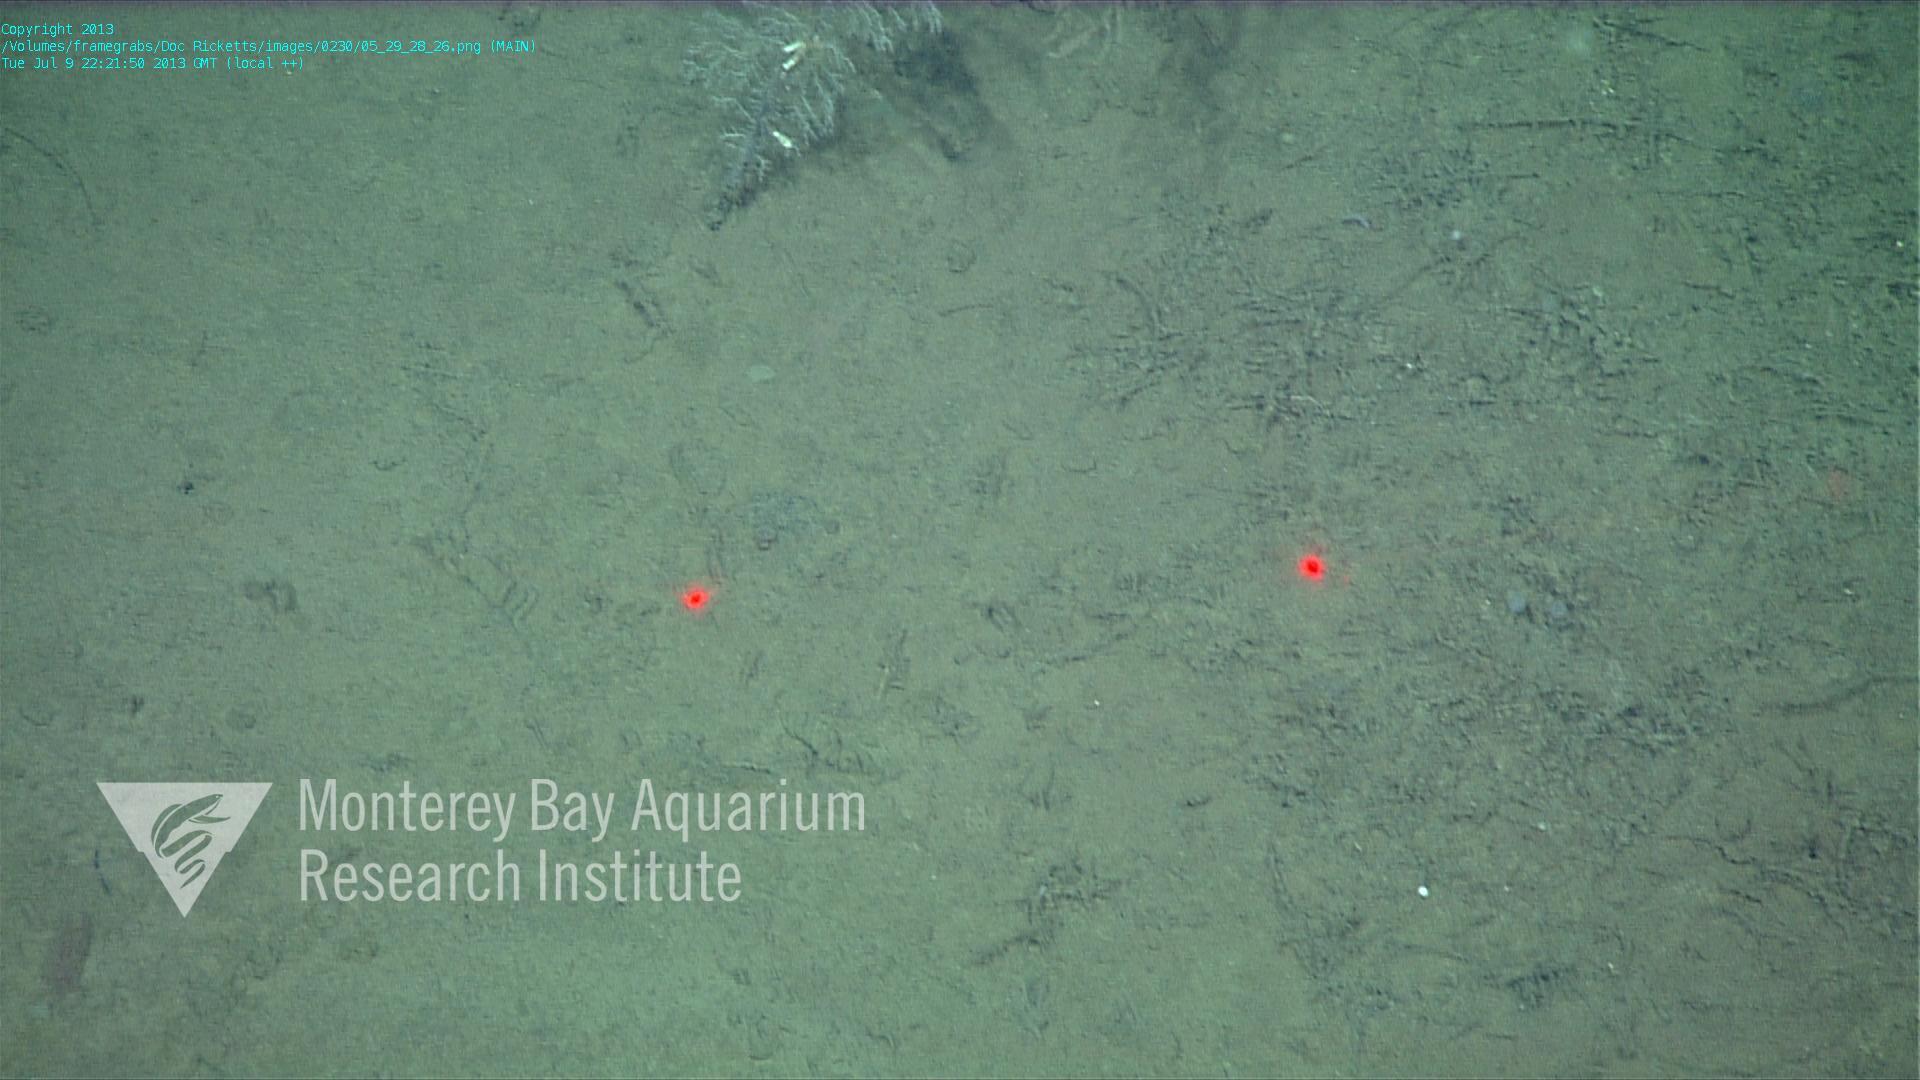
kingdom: Animalia
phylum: Porifera
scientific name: Porifera
